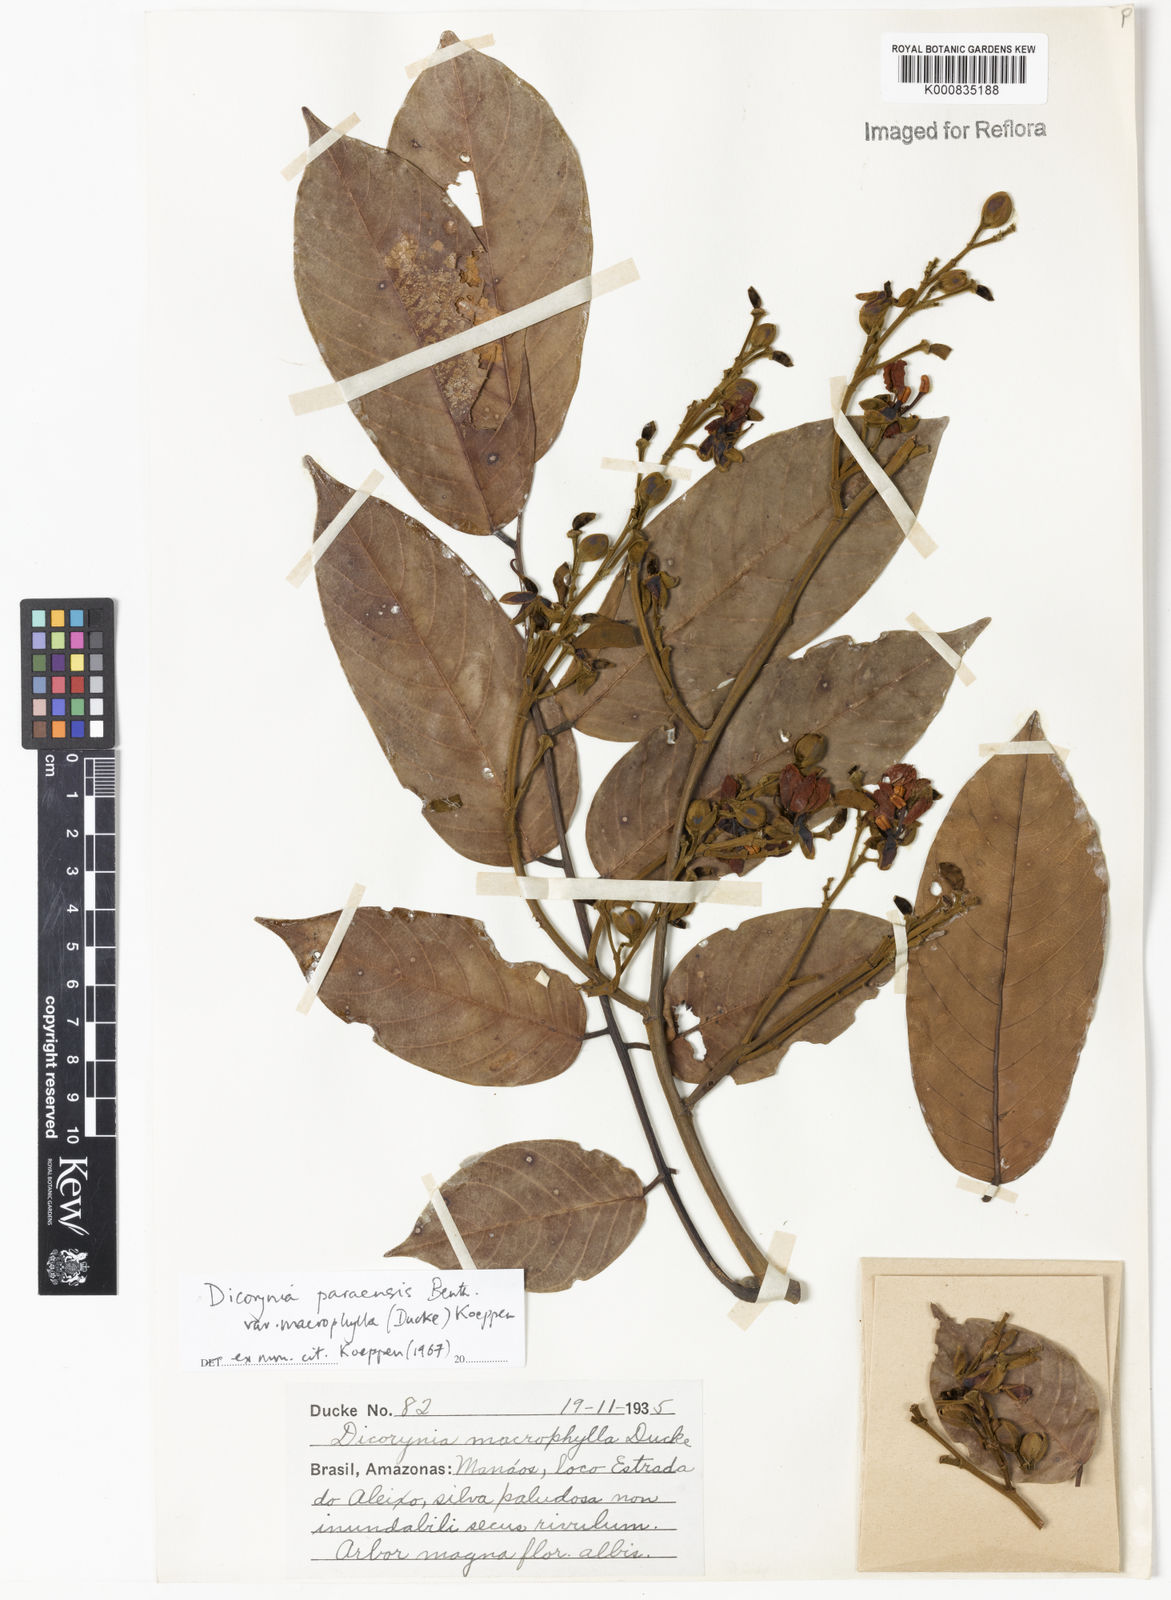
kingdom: Plantae
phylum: Tracheophyta
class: Magnoliopsida
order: Fabales
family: Fabaceae
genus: Dicorynia
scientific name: Dicorynia paraensis
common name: Angelique
